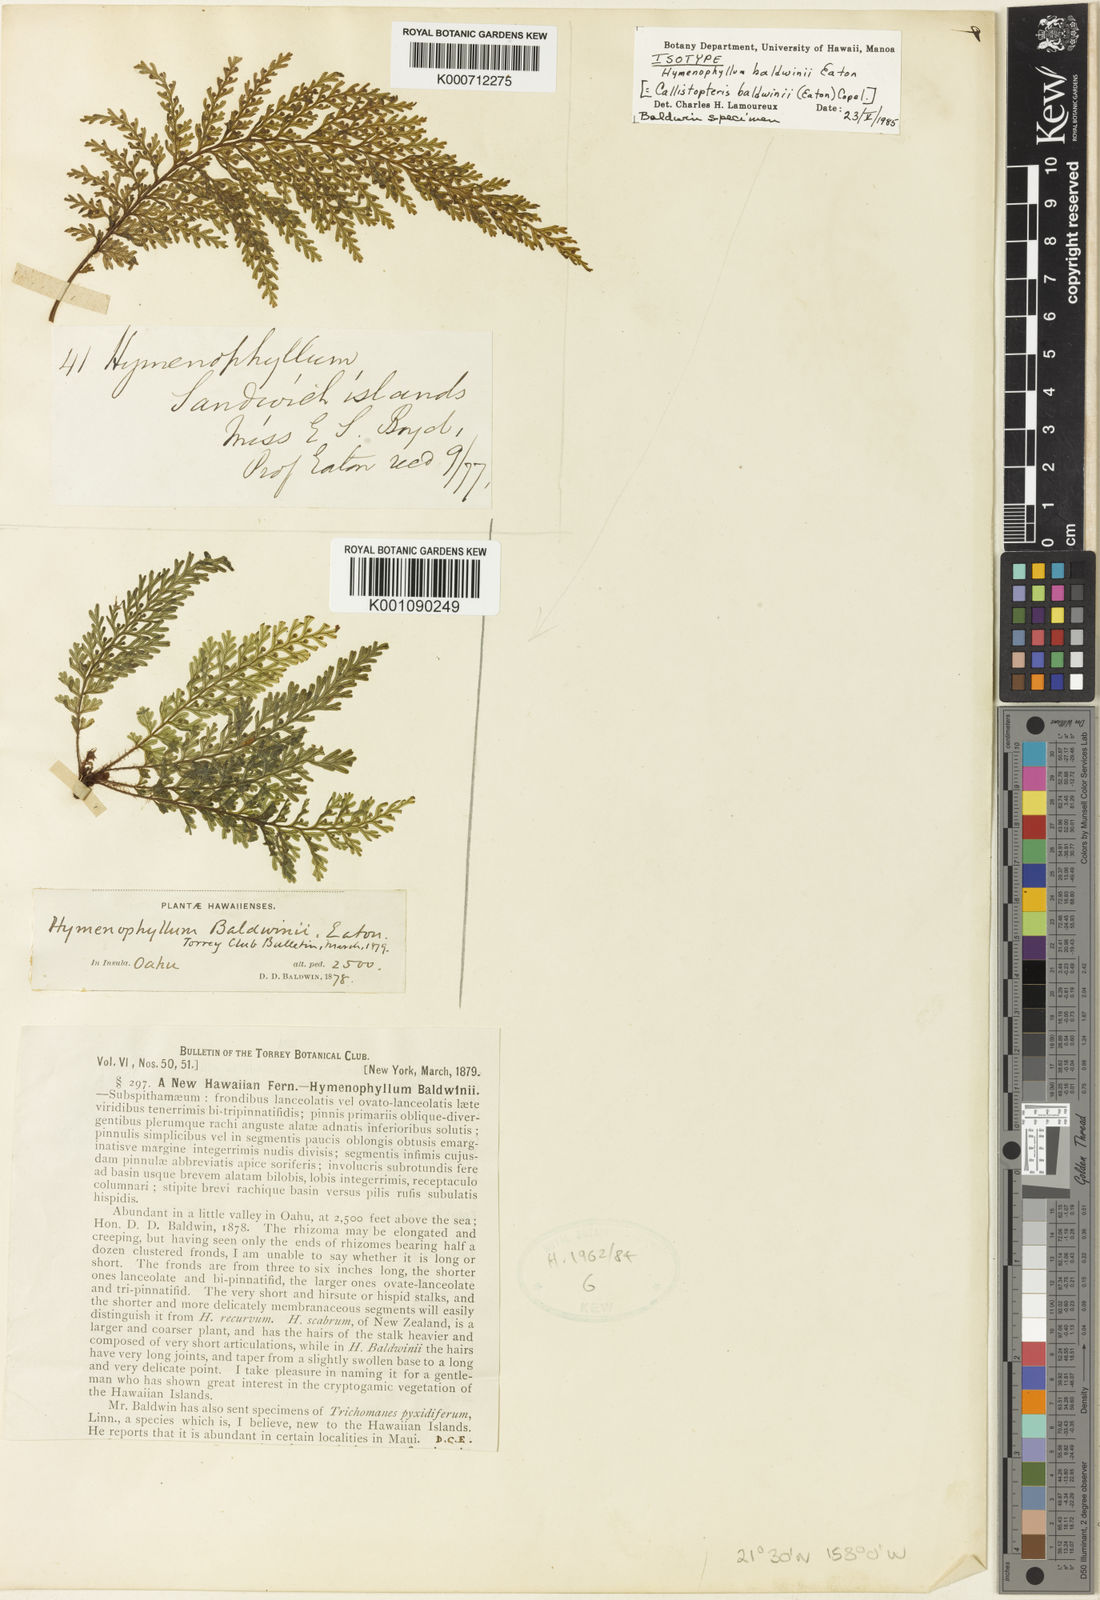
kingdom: Plantae
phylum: Tracheophyta
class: Polypodiopsida
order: Hymenophyllales
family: Hymenophyllaceae
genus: Callistopteris
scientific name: Callistopteris baldwinii
